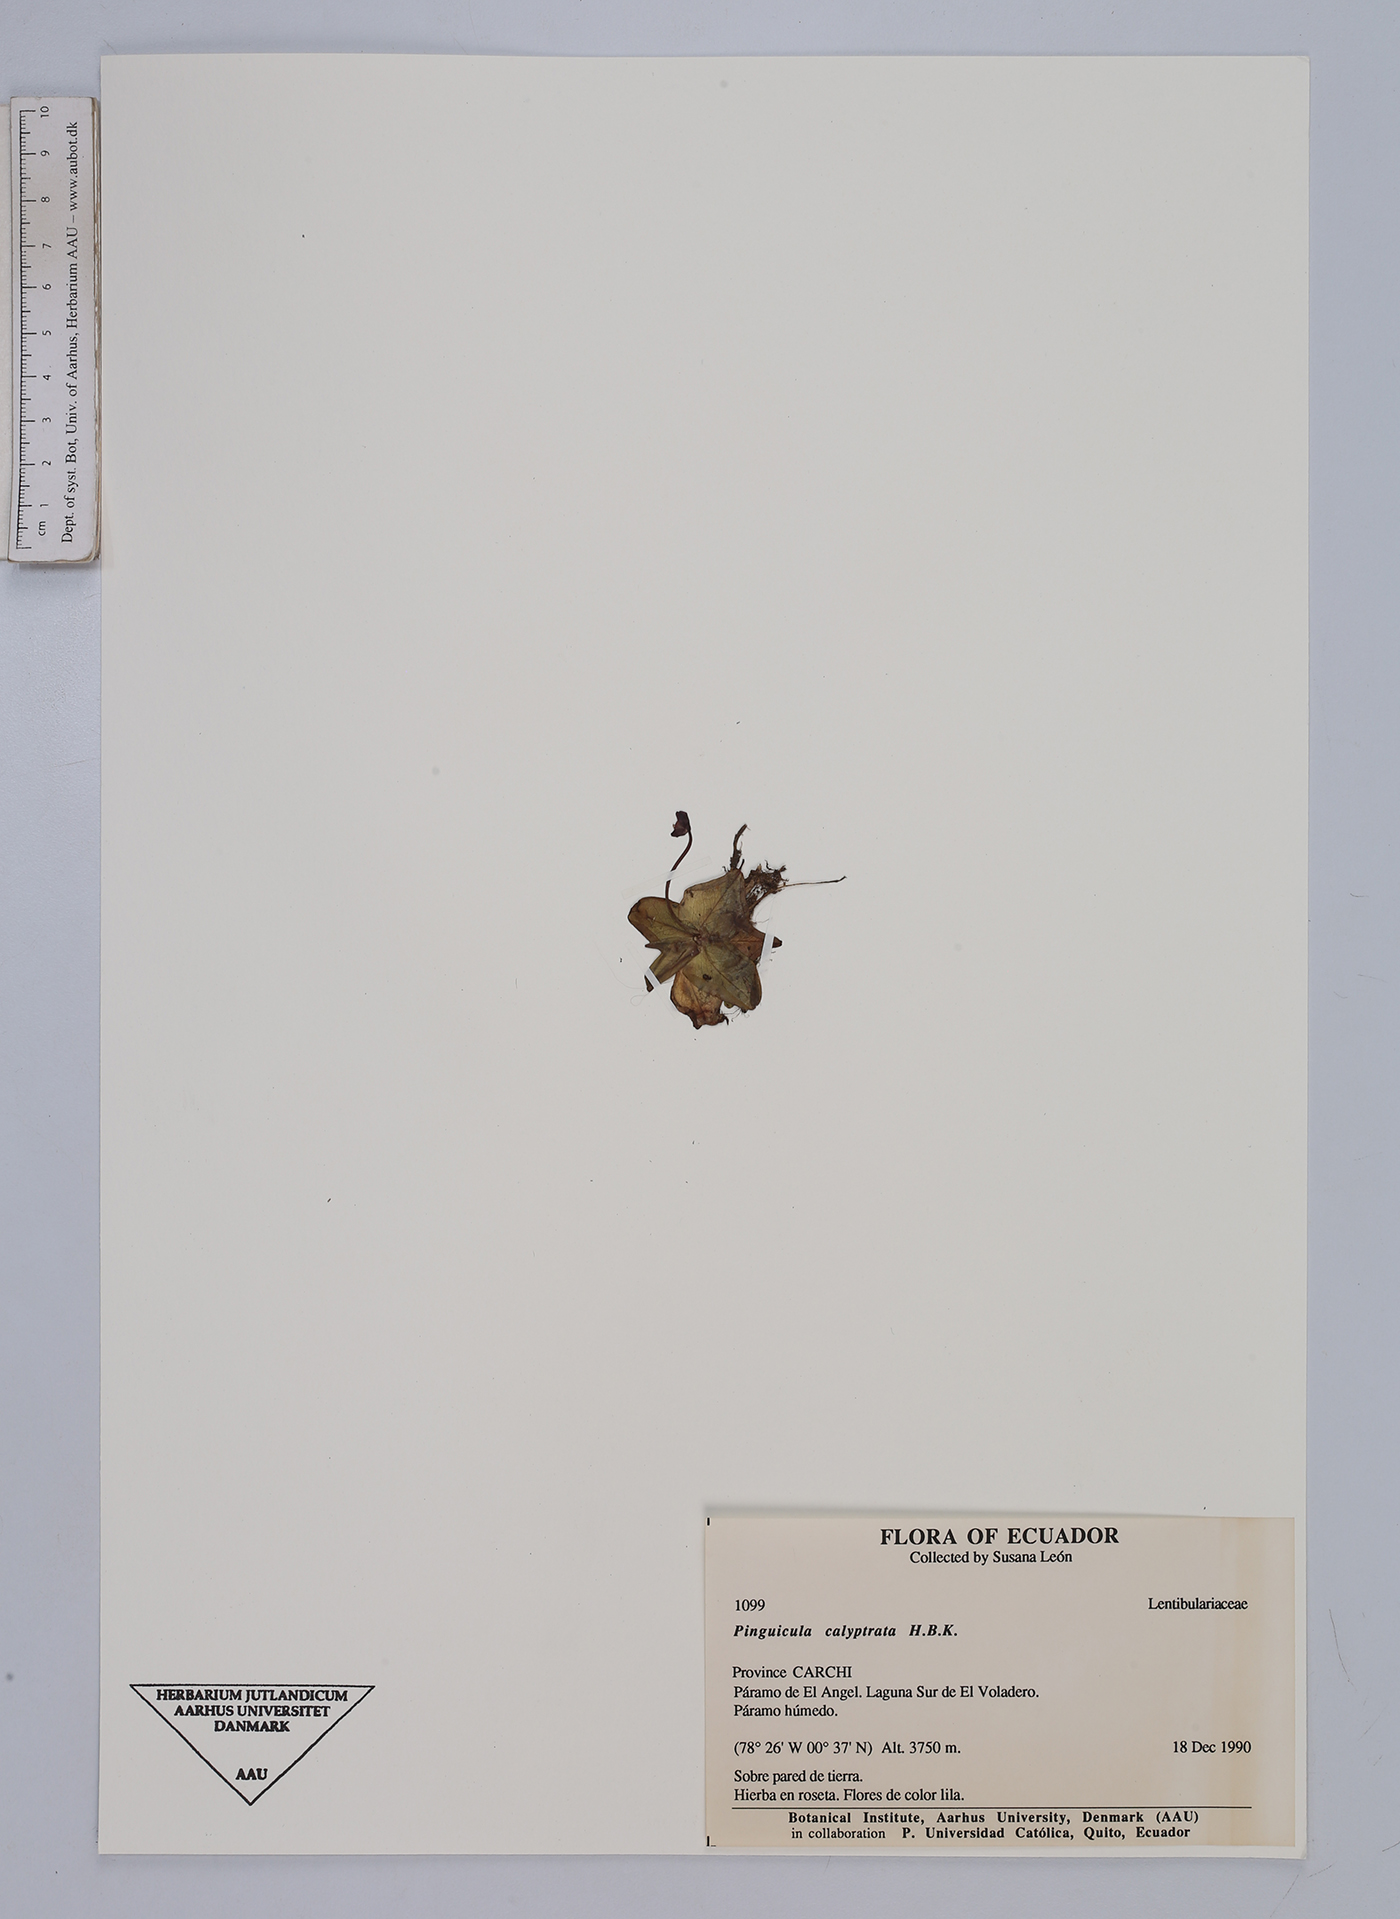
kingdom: Plantae
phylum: Tracheophyta
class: Magnoliopsida
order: Lamiales
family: Lentibulariaceae
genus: Pinguicula
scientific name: Pinguicula calyptrata
